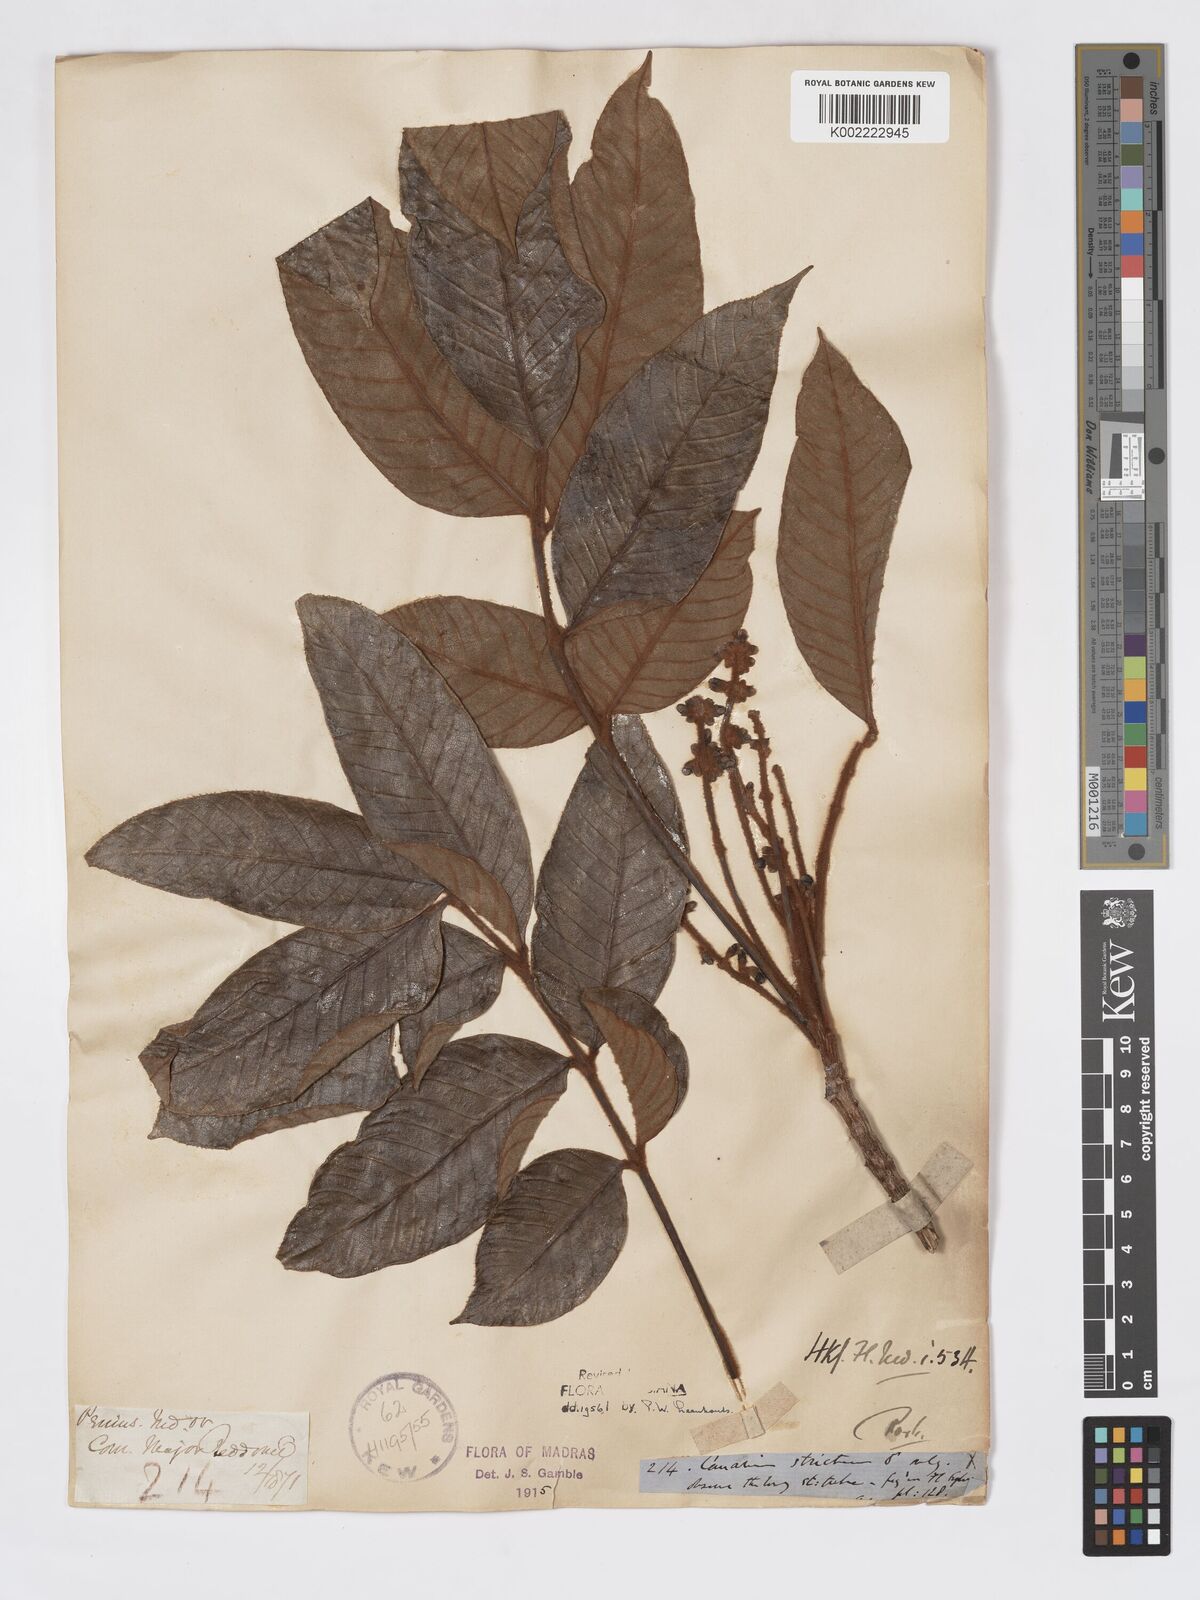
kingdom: Plantae
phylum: Tracheophyta
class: Magnoliopsida
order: Sapindales
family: Burseraceae
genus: Canarium
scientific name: Canarium strictum
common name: Indian white-mahogany
